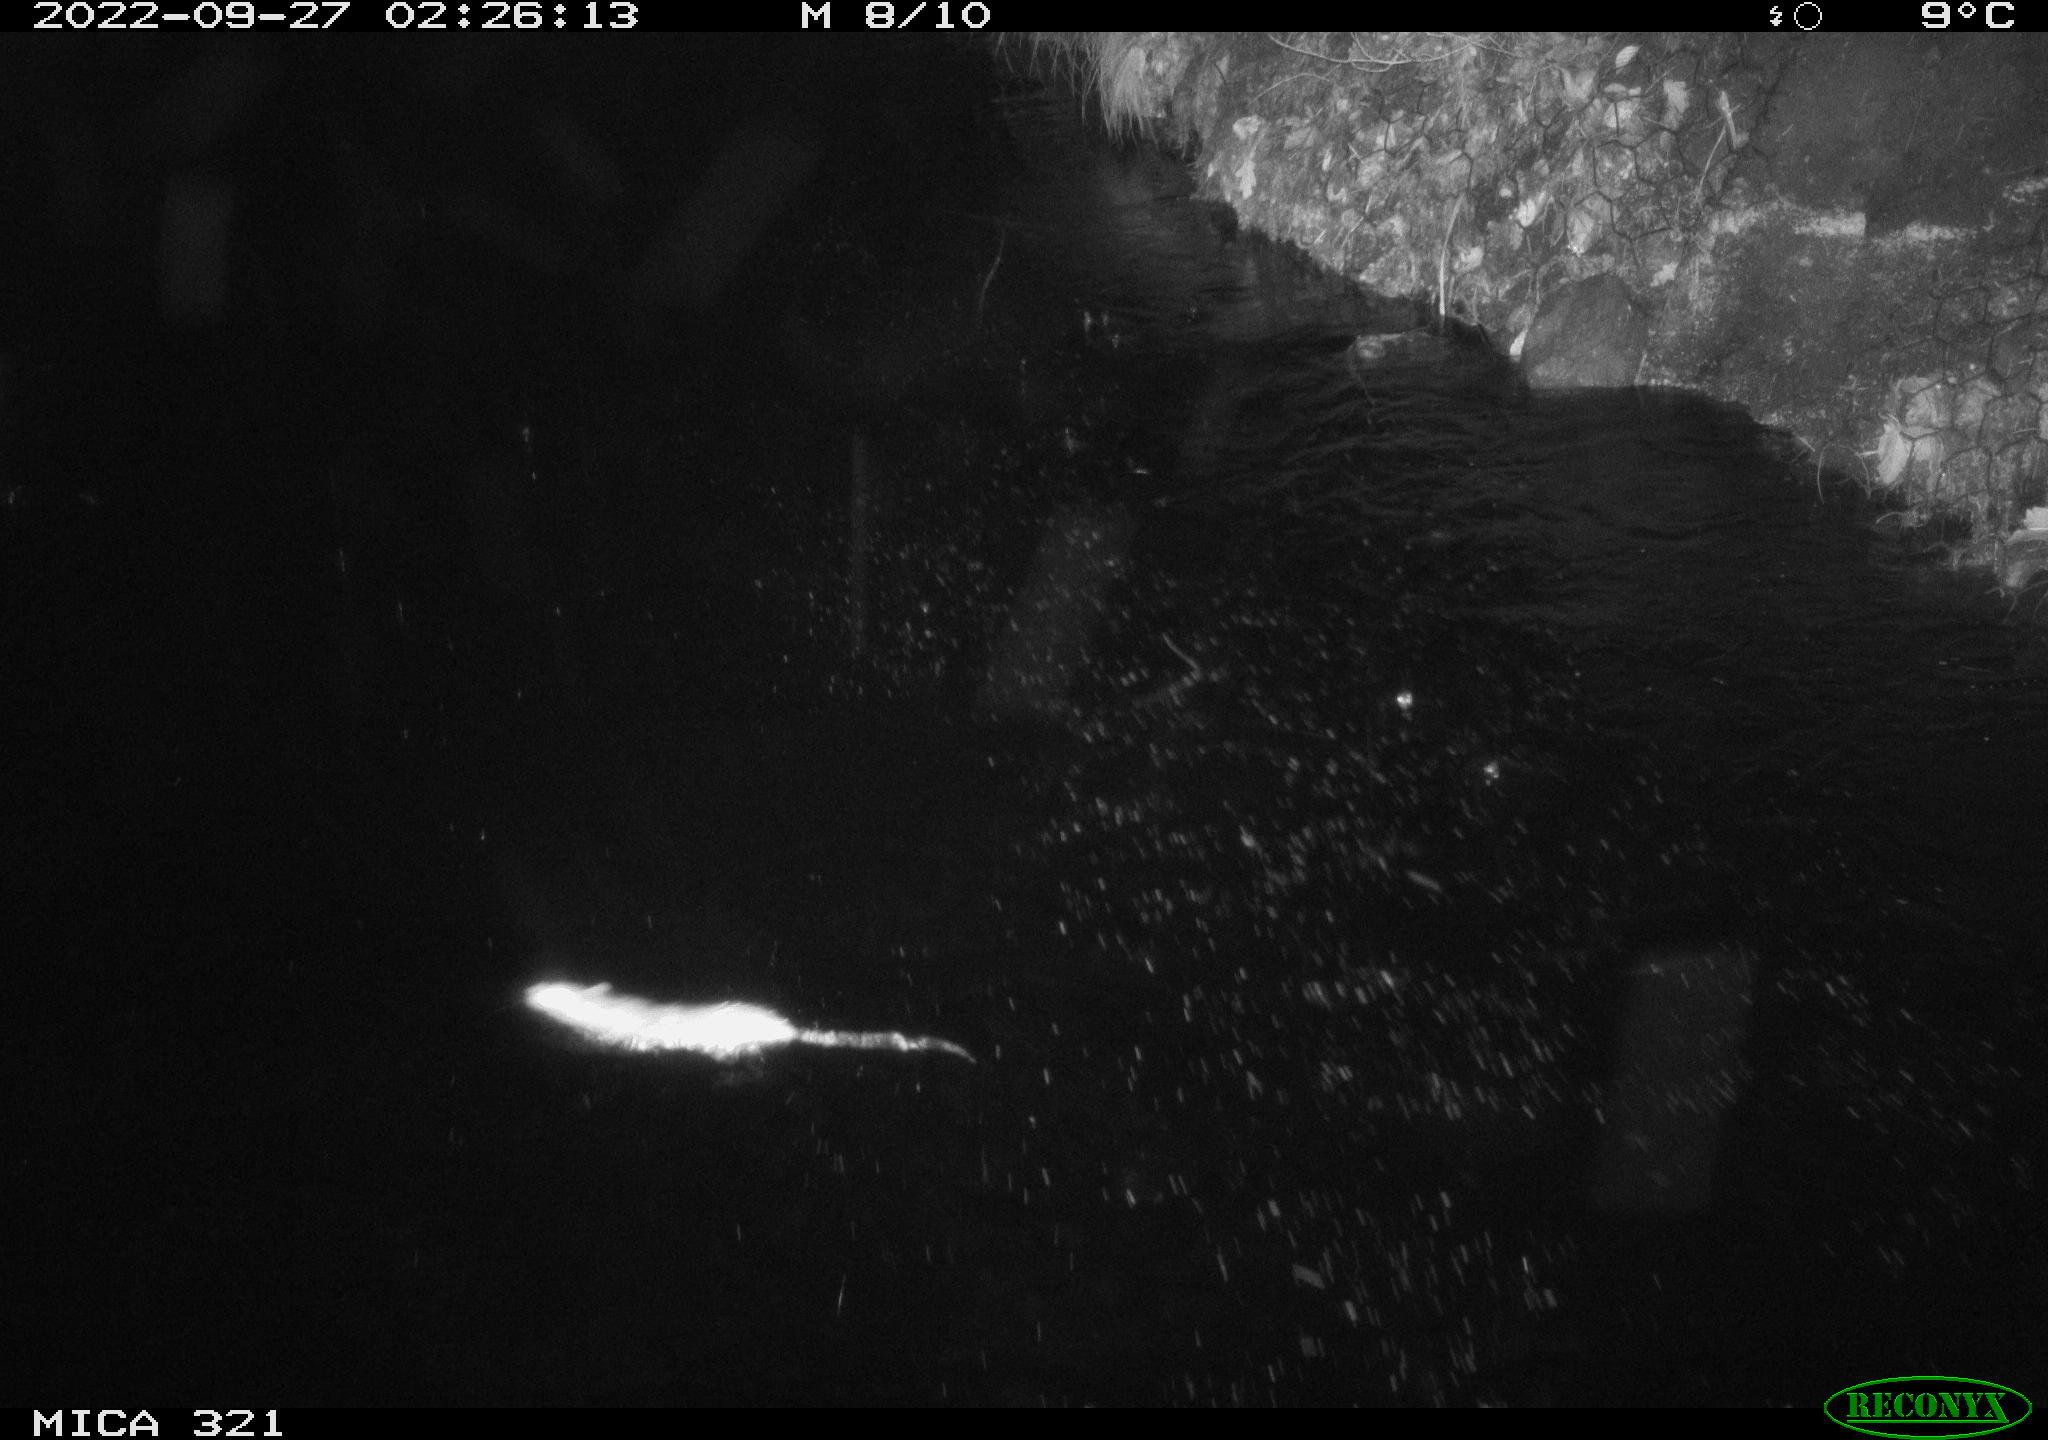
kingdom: Animalia
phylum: Chordata
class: Mammalia
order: Rodentia
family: Muridae
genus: Rattus
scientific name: Rattus norvegicus
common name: Brown rat
